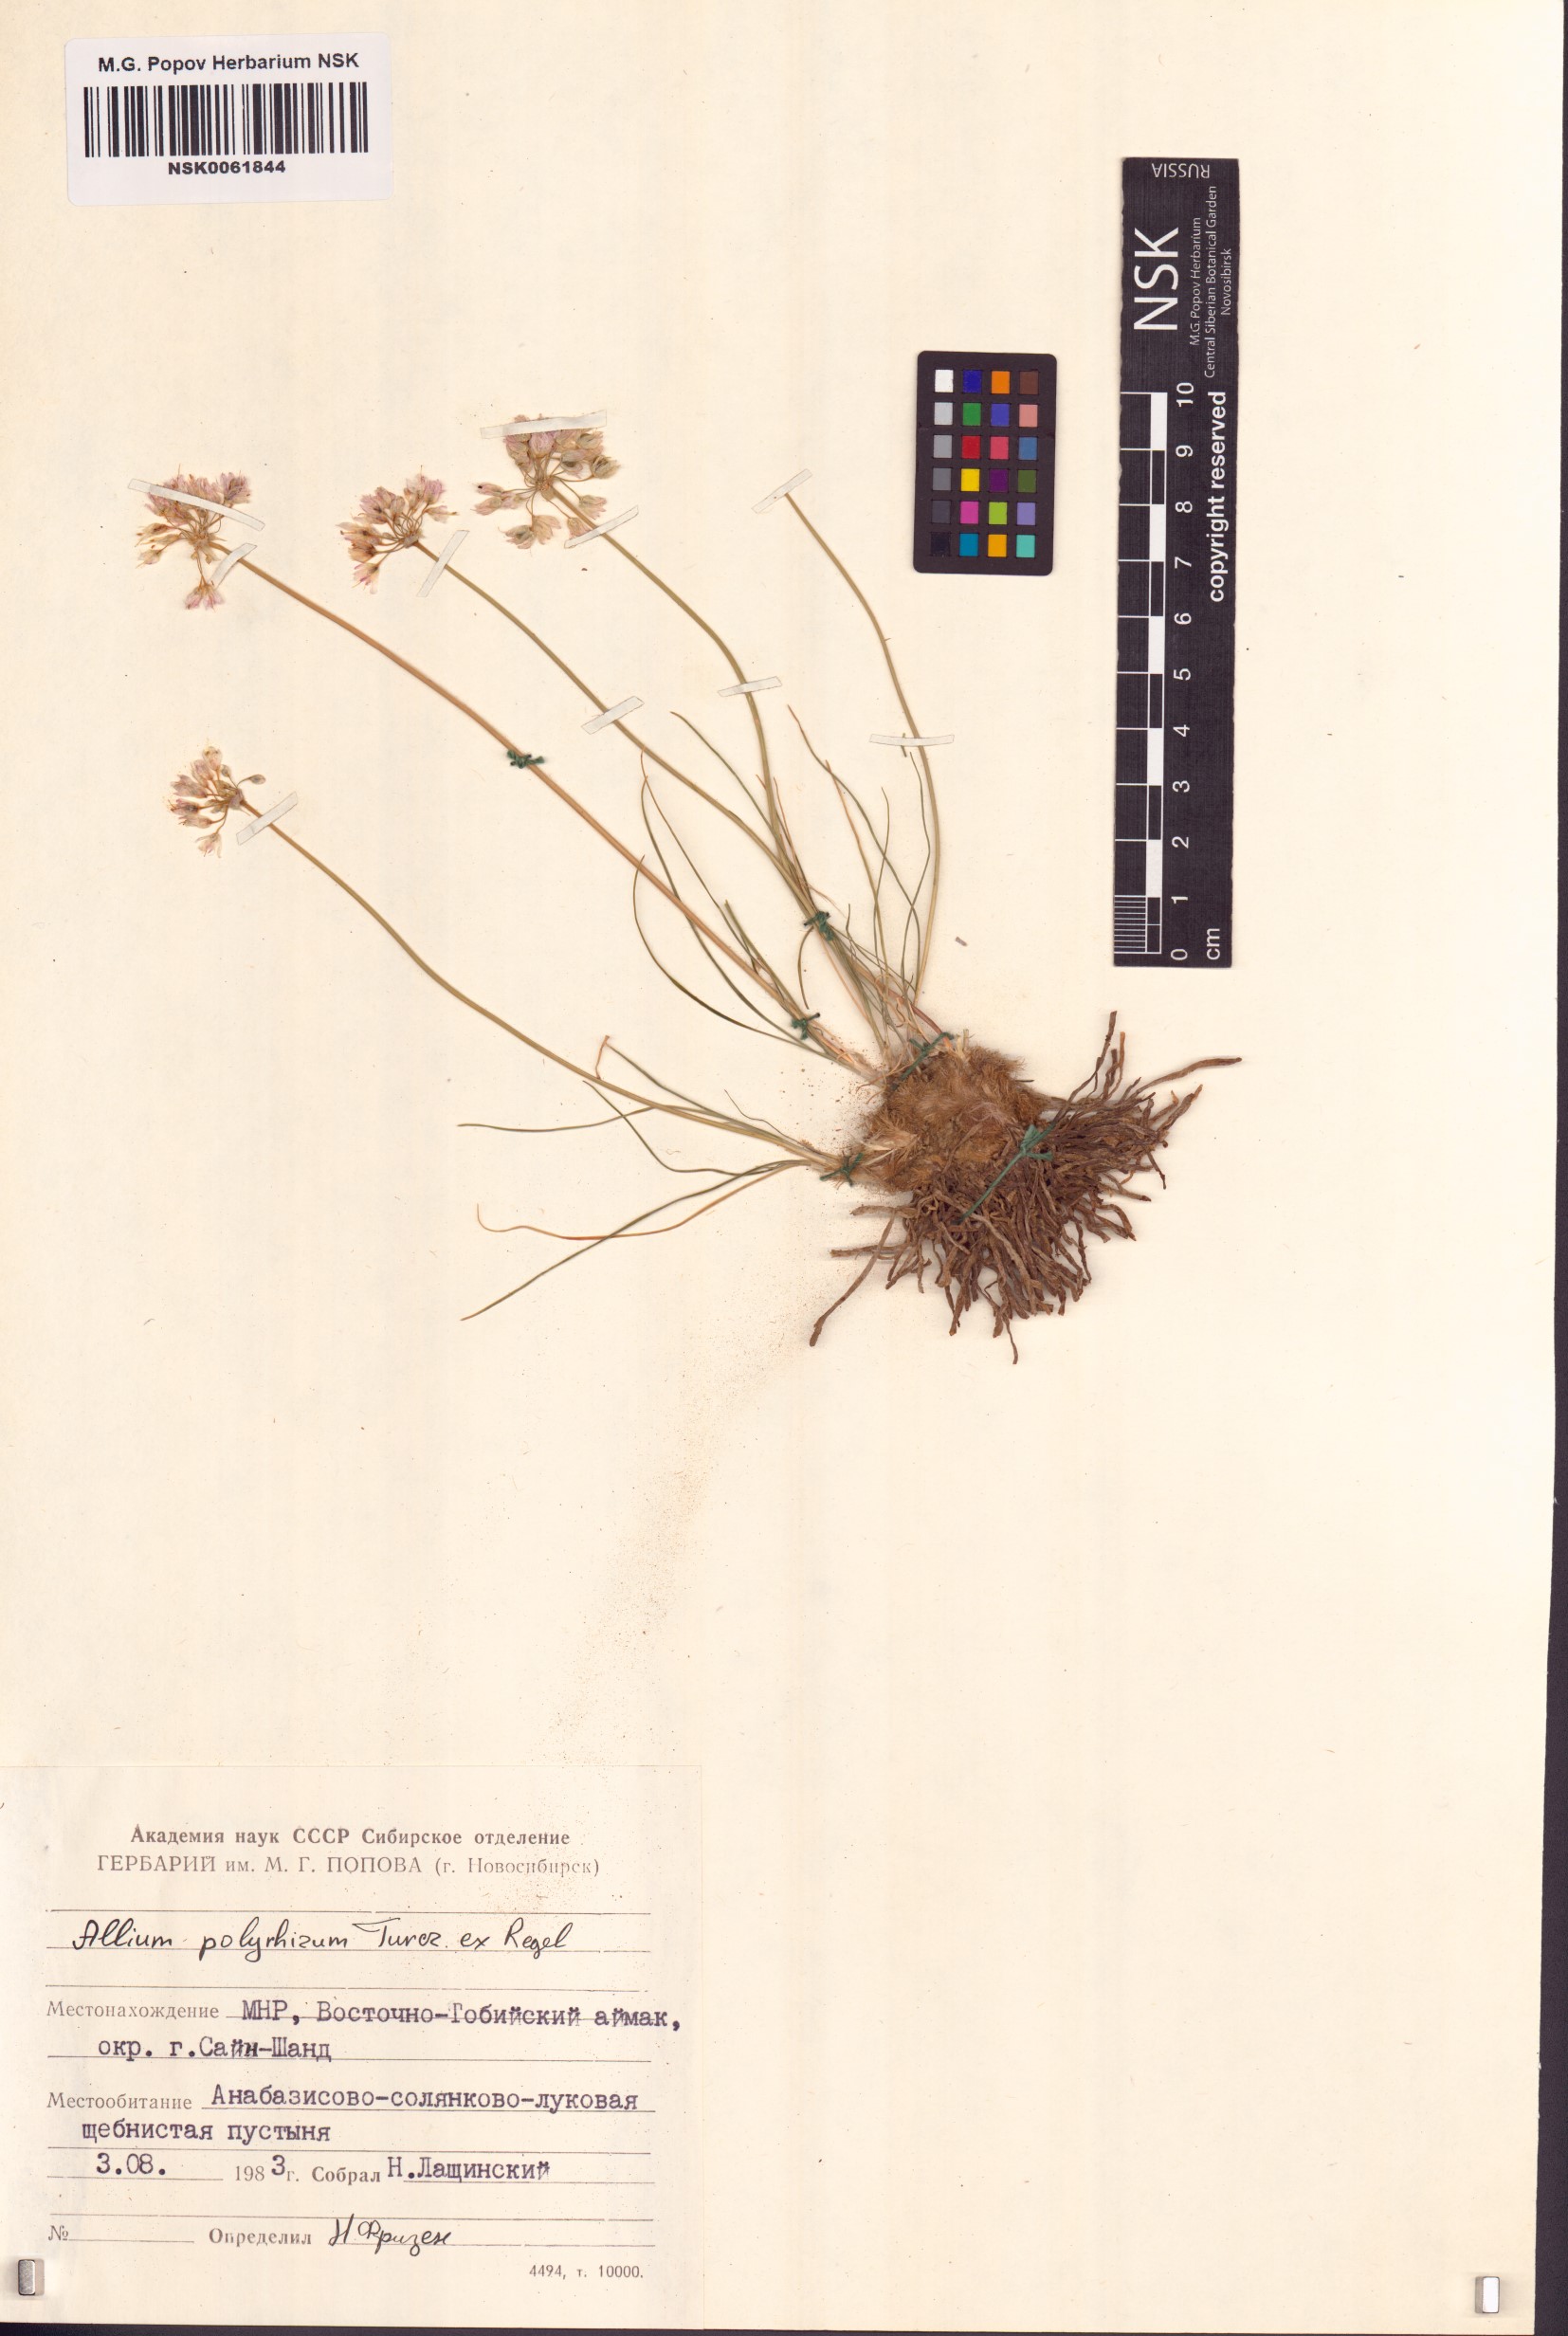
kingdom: Plantae
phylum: Tracheophyta
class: Liliopsida
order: Asparagales
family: Amaryllidaceae
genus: Allium
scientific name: Allium polyrhizum
